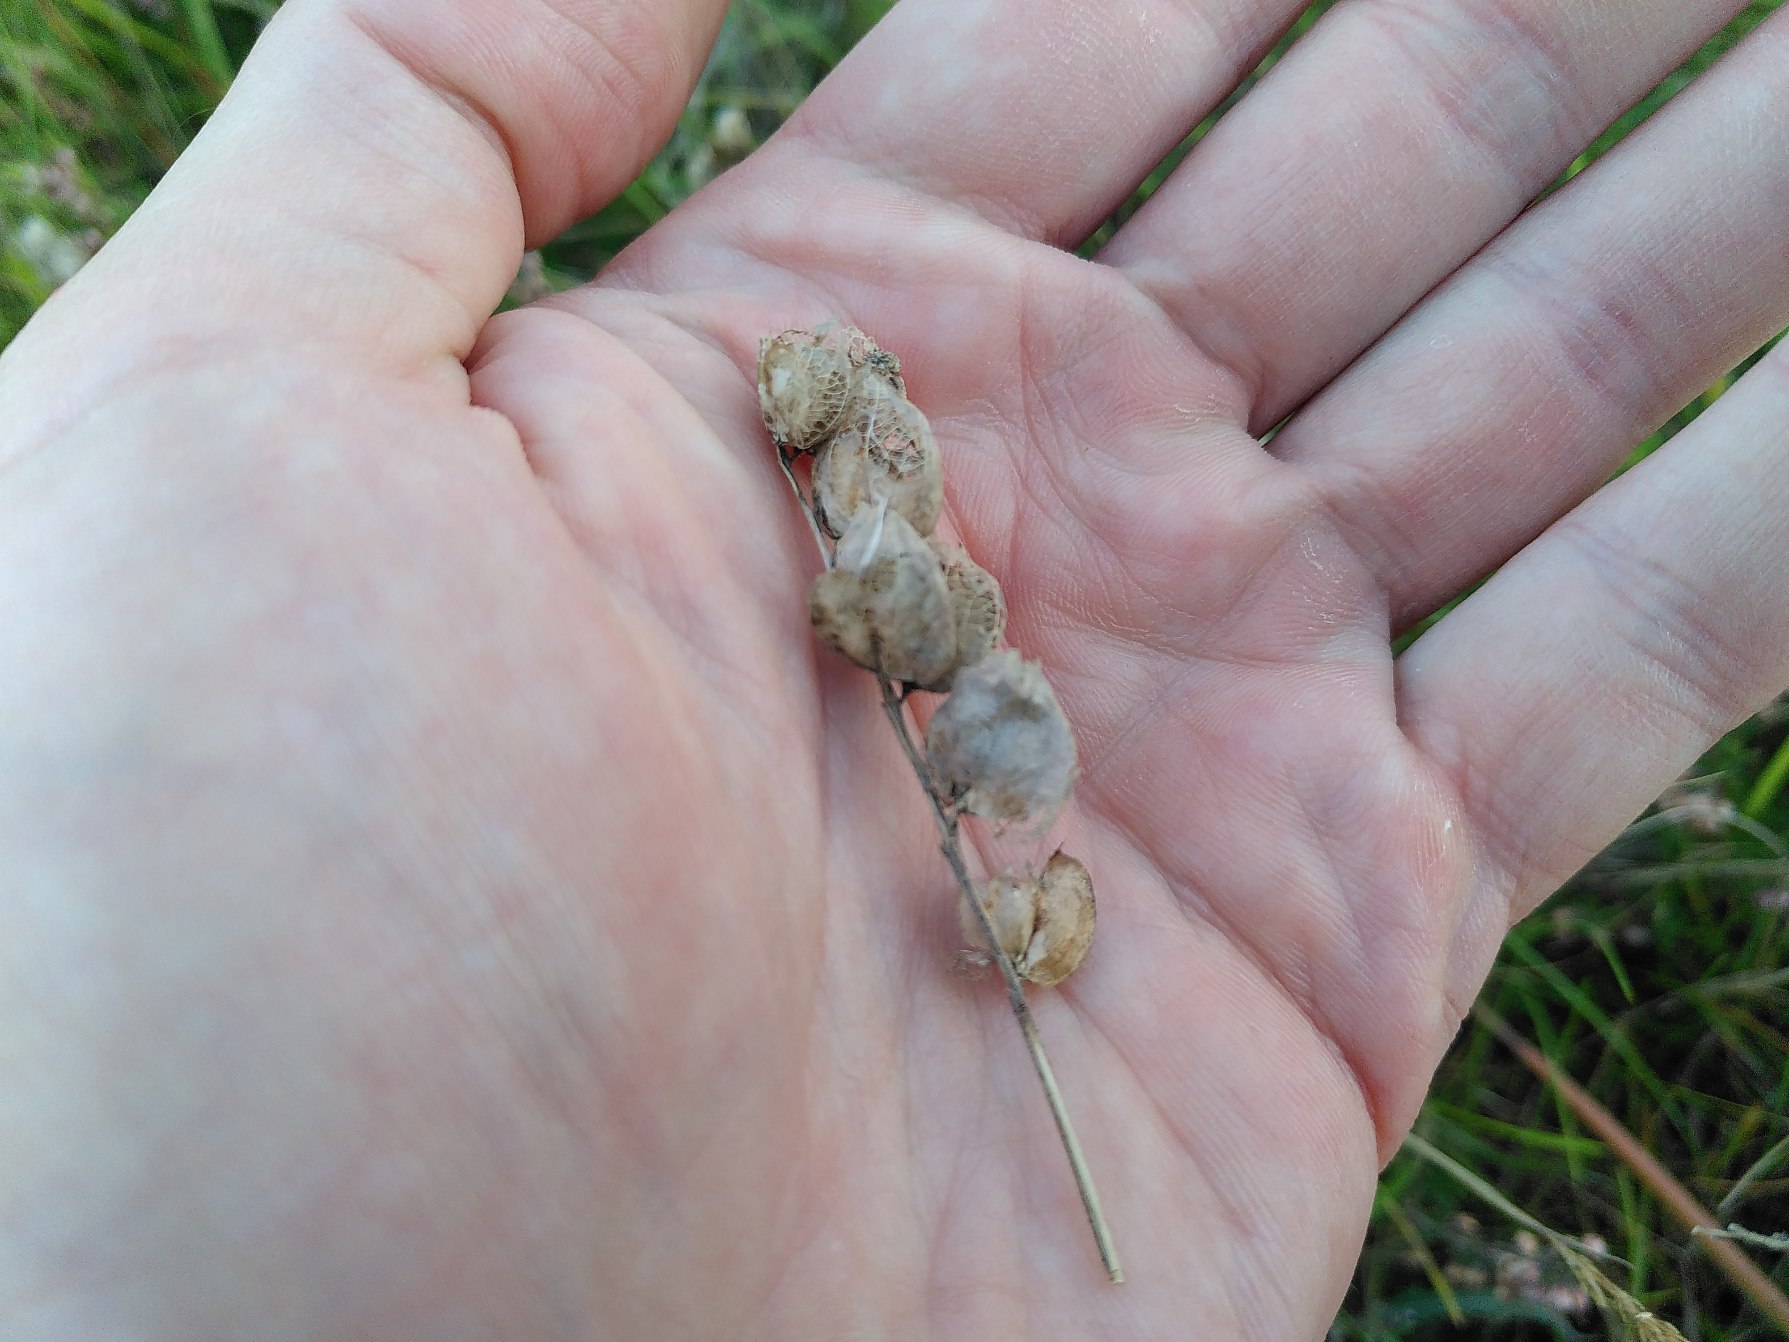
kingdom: Plantae
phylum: Tracheophyta
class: Magnoliopsida
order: Lamiales
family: Orobanchaceae
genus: Rhinanthus
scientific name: Rhinanthus
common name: Skjallerslægten
